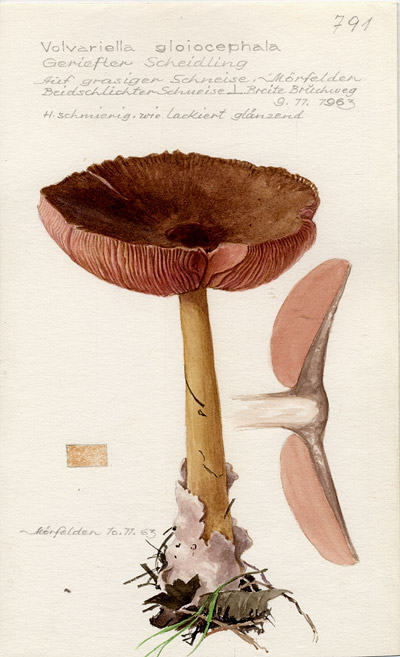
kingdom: Fungi
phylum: Basidiomycota
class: Agaricomycetes
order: Agaricales
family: Pluteaceae
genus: Volvopluteus
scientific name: Volvopluteus gloiocephalus
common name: Stubble rosegill
